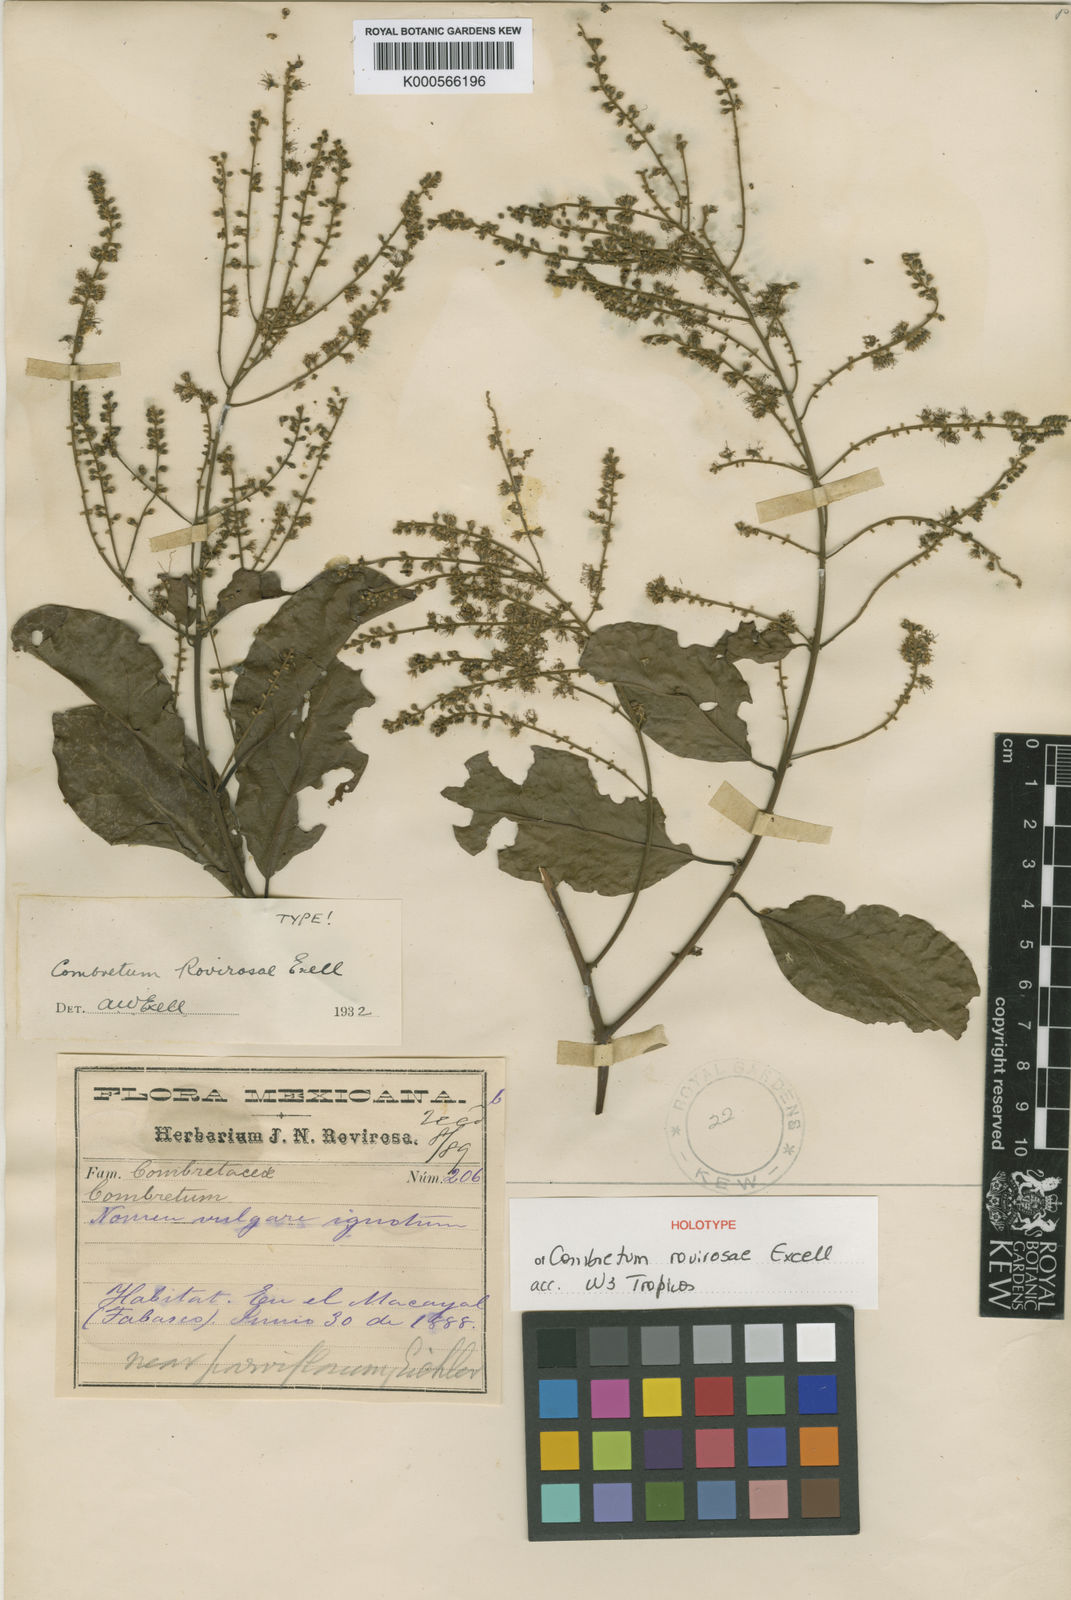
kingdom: Plantae
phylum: Tracheophyta
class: Magnoliopsida
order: Myrtales
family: Combretaceae
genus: Combretum
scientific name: Combretum rovirosae
